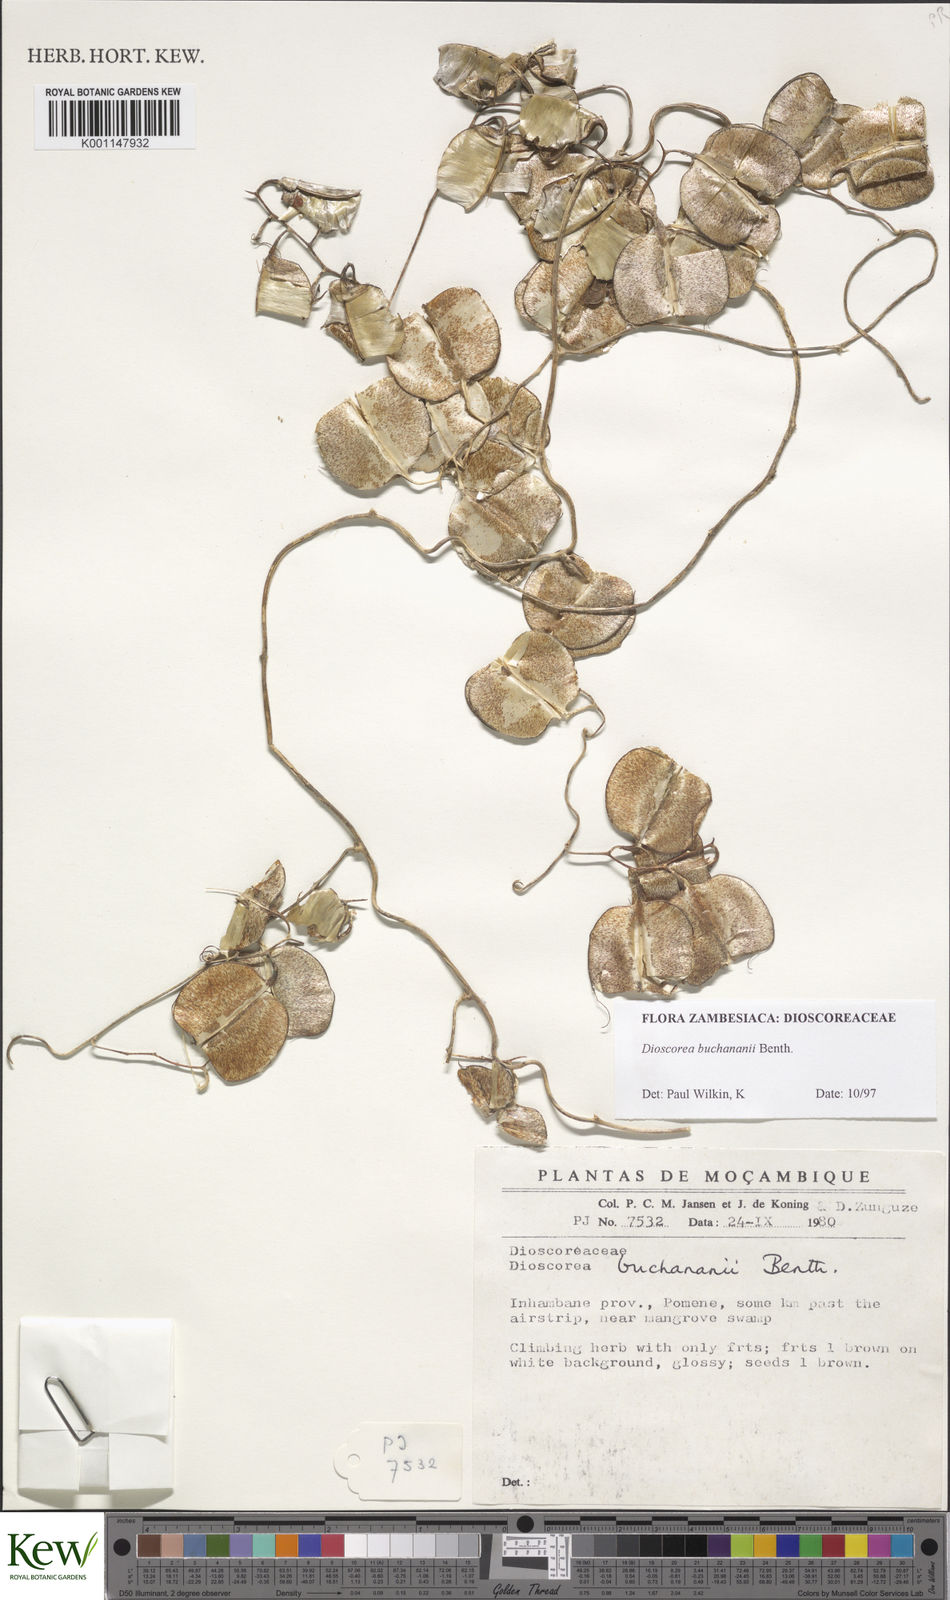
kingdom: Plantae
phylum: Tracheophyta
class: Liliopsida
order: Dioscoreales
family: Dioscoreaceae
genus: Dioscorea
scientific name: Dioscorea buchananii
